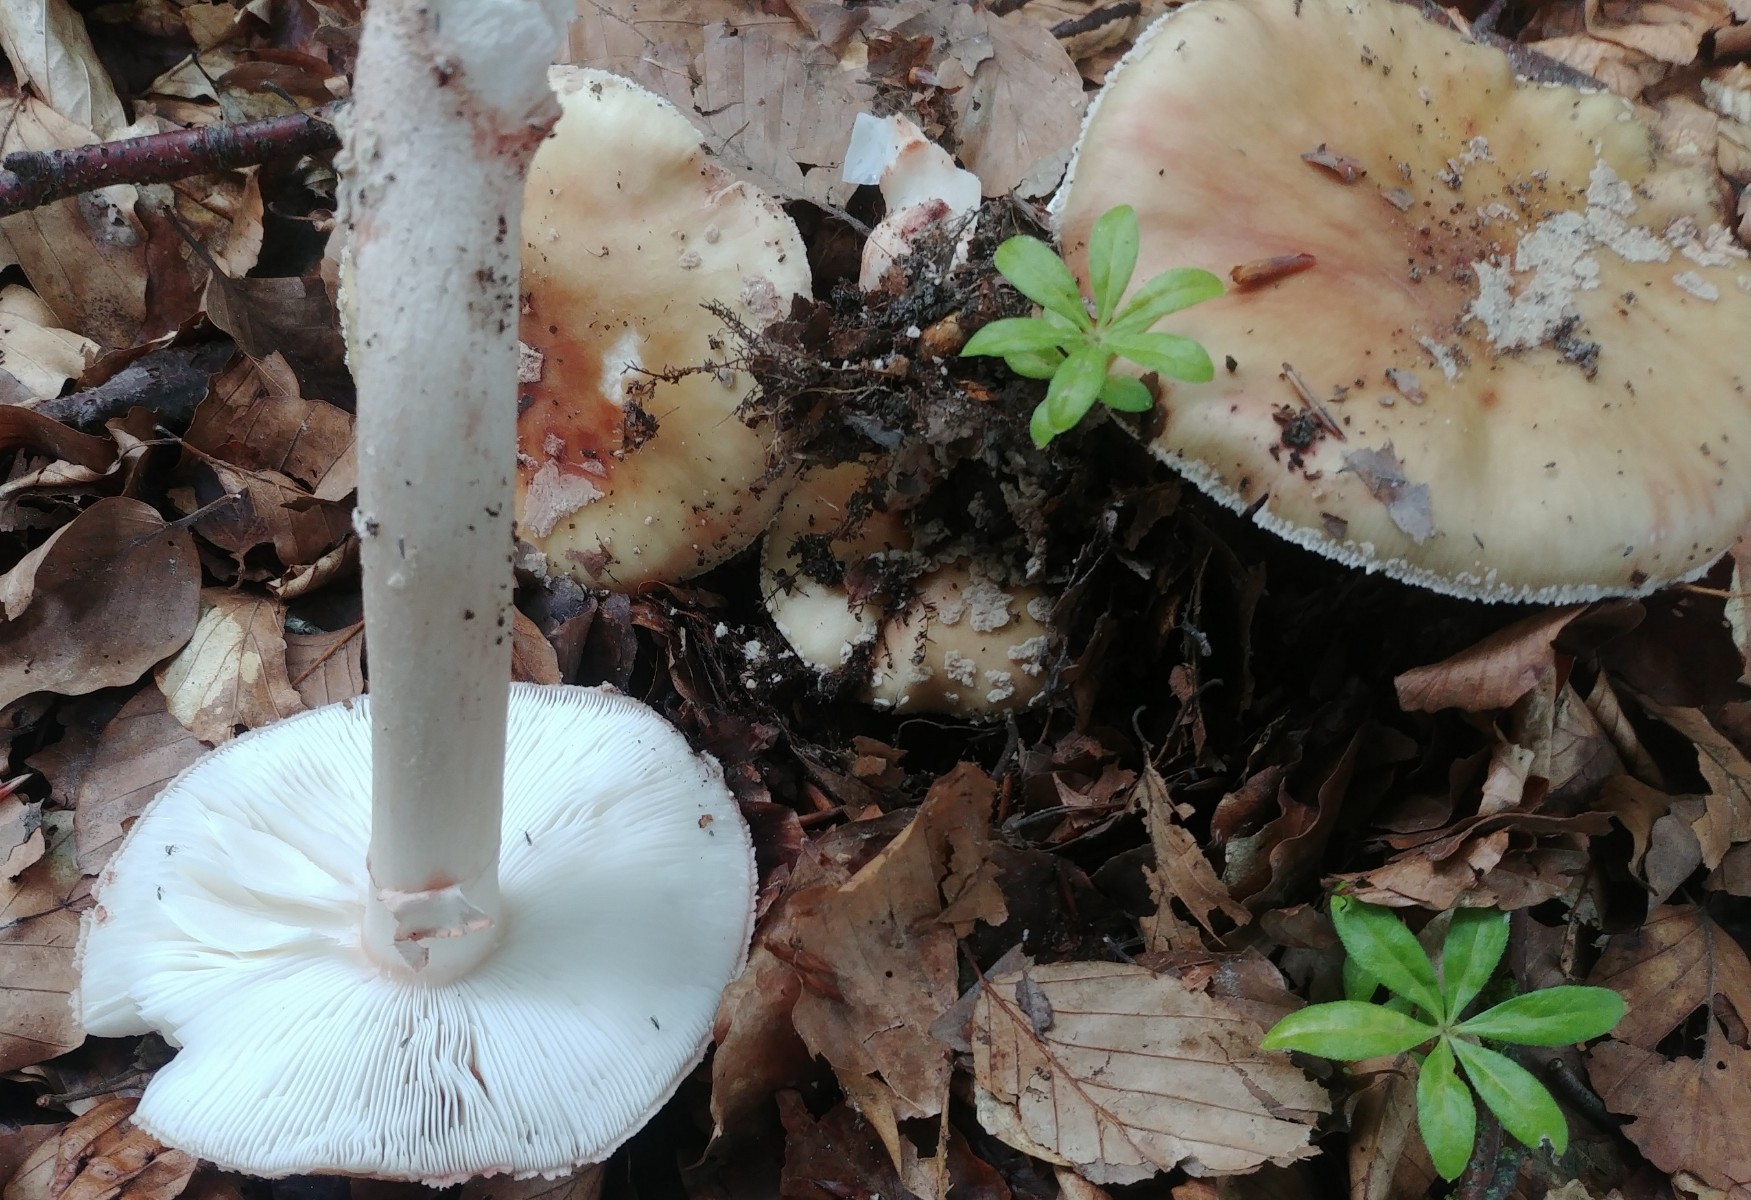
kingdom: Fungi
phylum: Basidiomycota
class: Agaricomycetes
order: Agaricales
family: Amanitaceae
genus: Amanita
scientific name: Amanita rubescens
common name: rødmende fluesvamp
